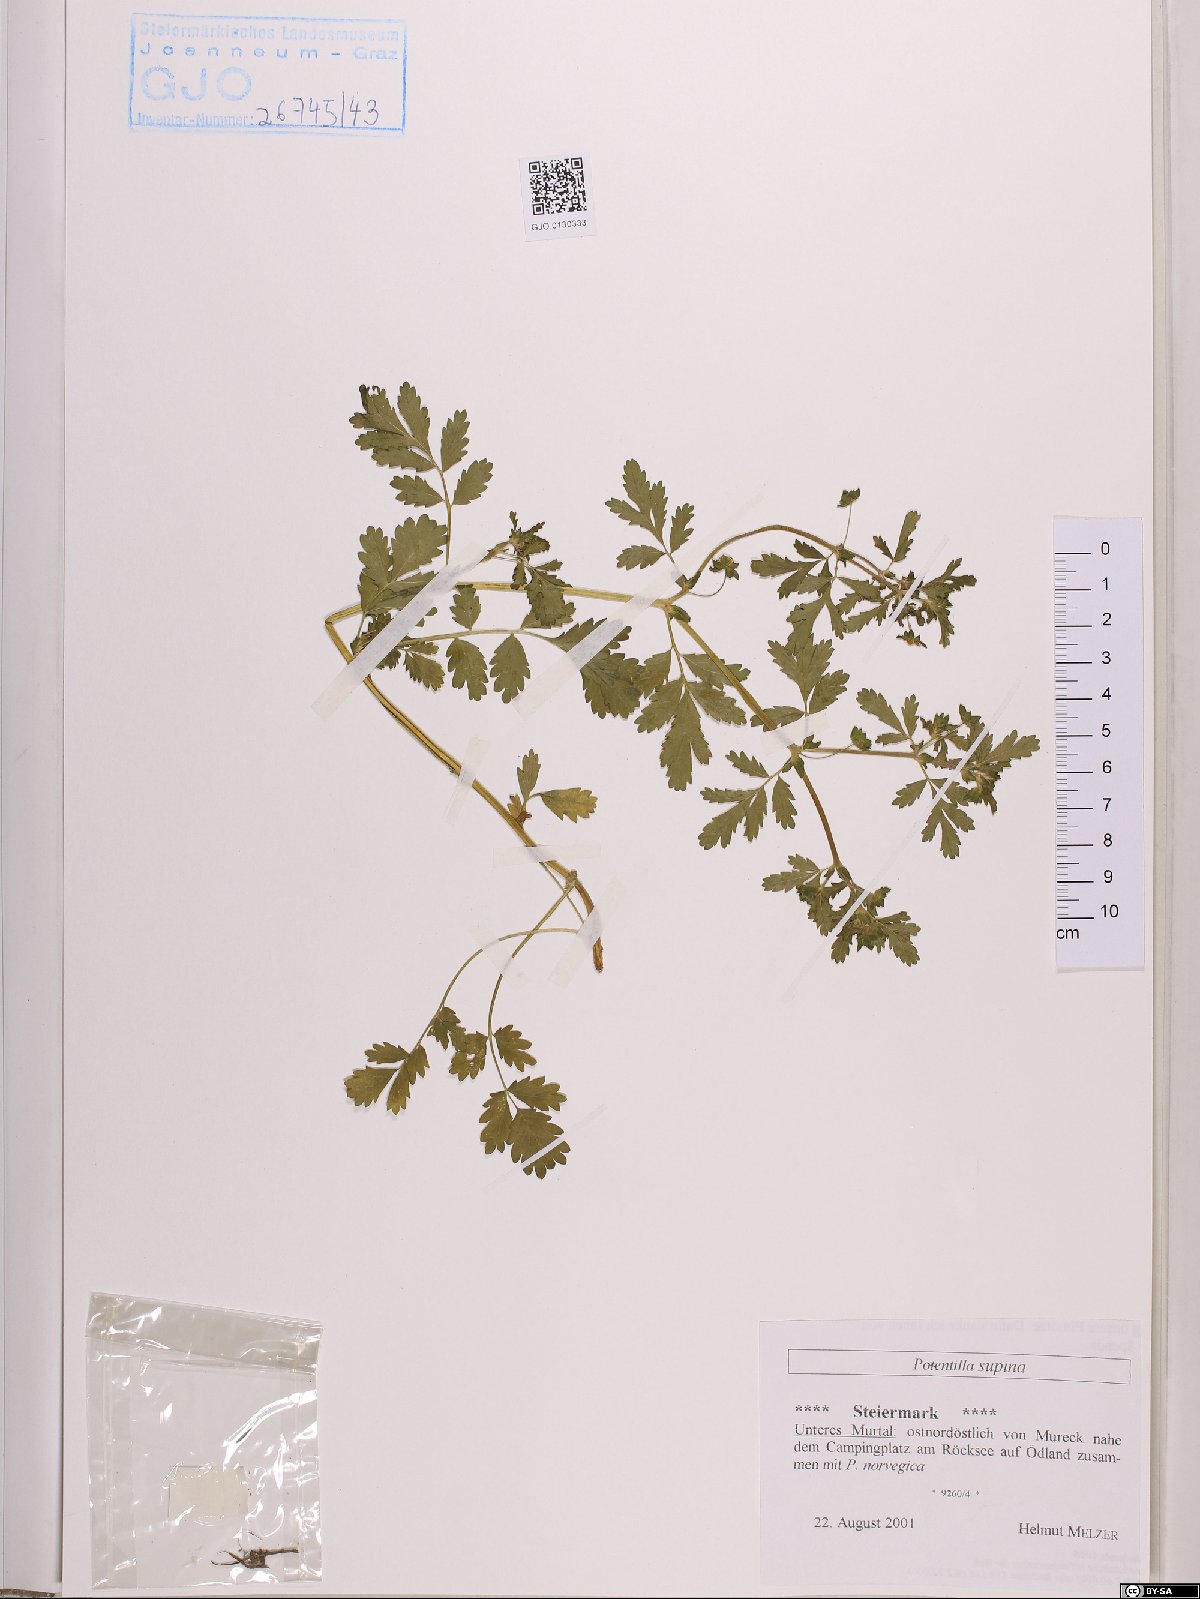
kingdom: Plantae
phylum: Tracheophyta
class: Magnoliopsida
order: Rosales
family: Rosaceae
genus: Potentilla
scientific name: Potentilla supina
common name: Prostrate cinquefoil
